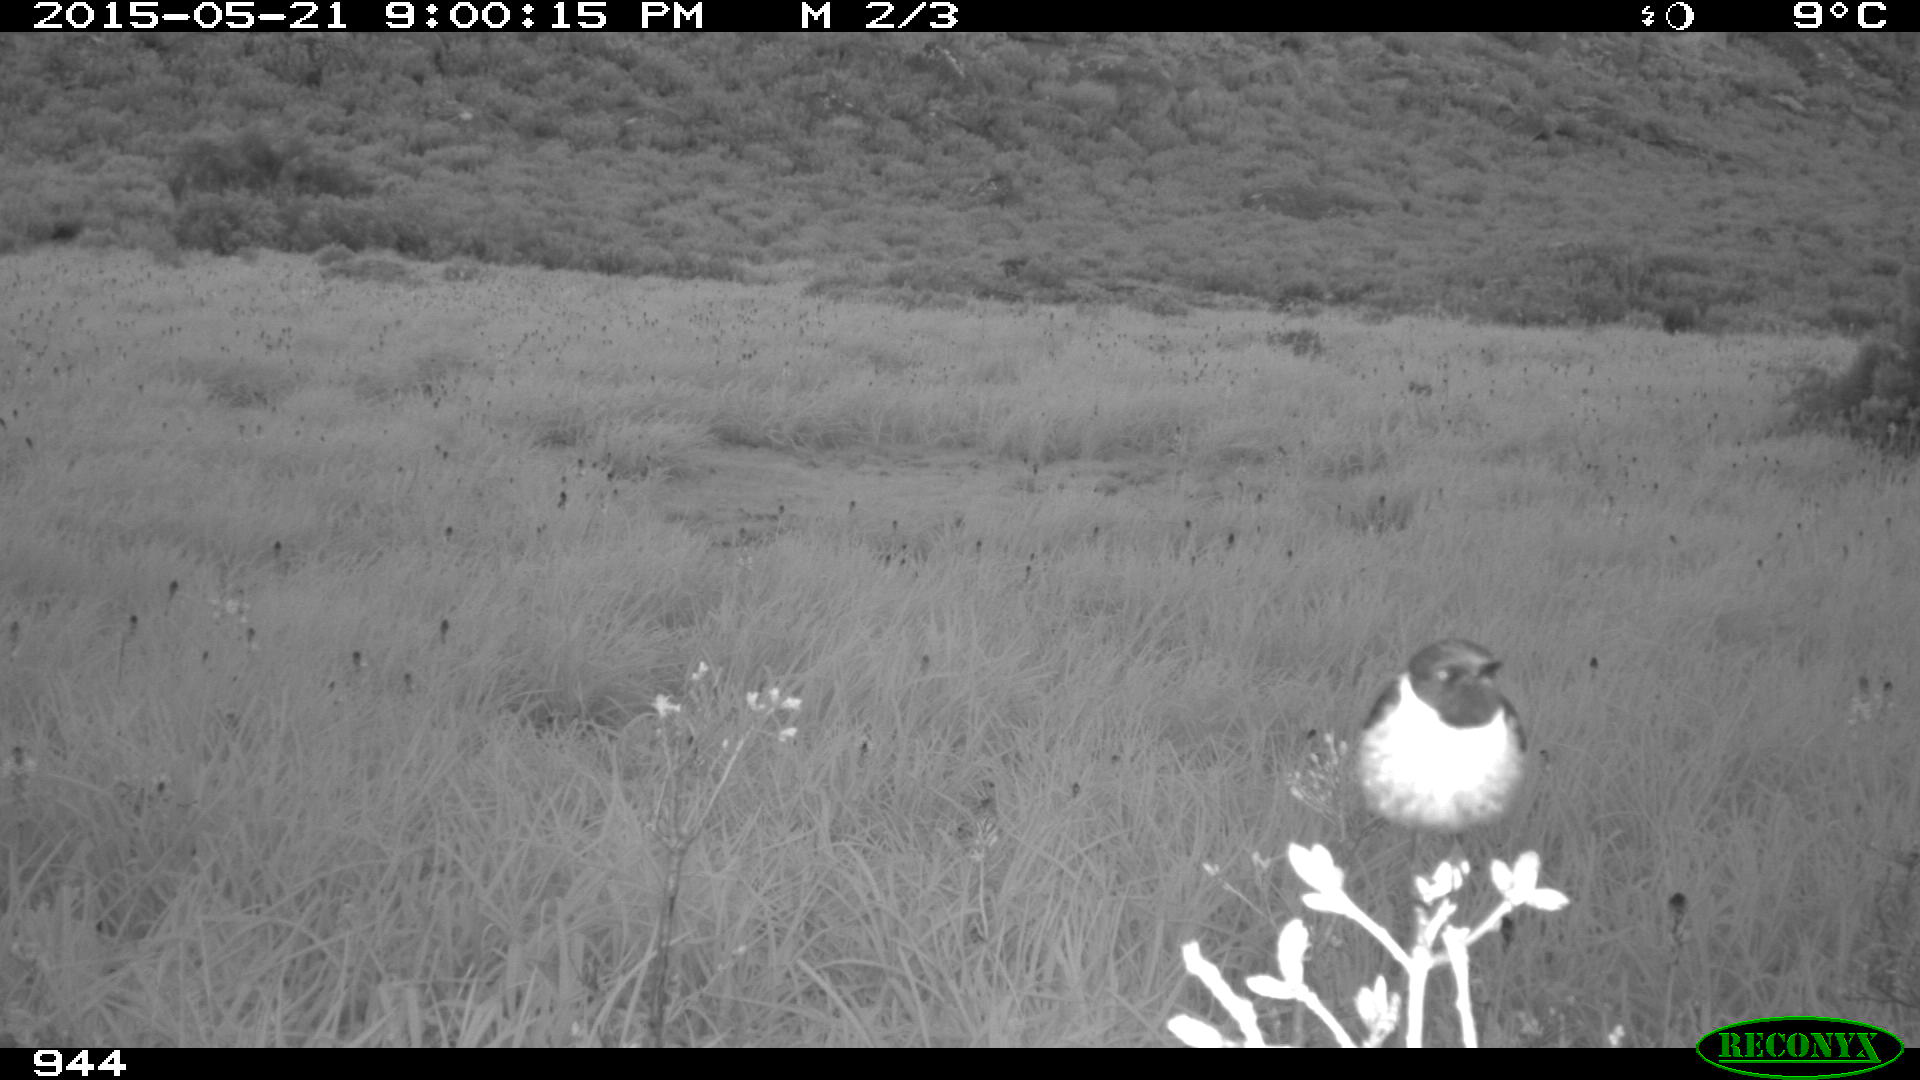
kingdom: Animalia
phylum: Chordata
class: Aves
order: Passeriformes
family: Muscicapidae
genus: Saxicola
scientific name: Saxicola rubicola
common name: European stonechat
